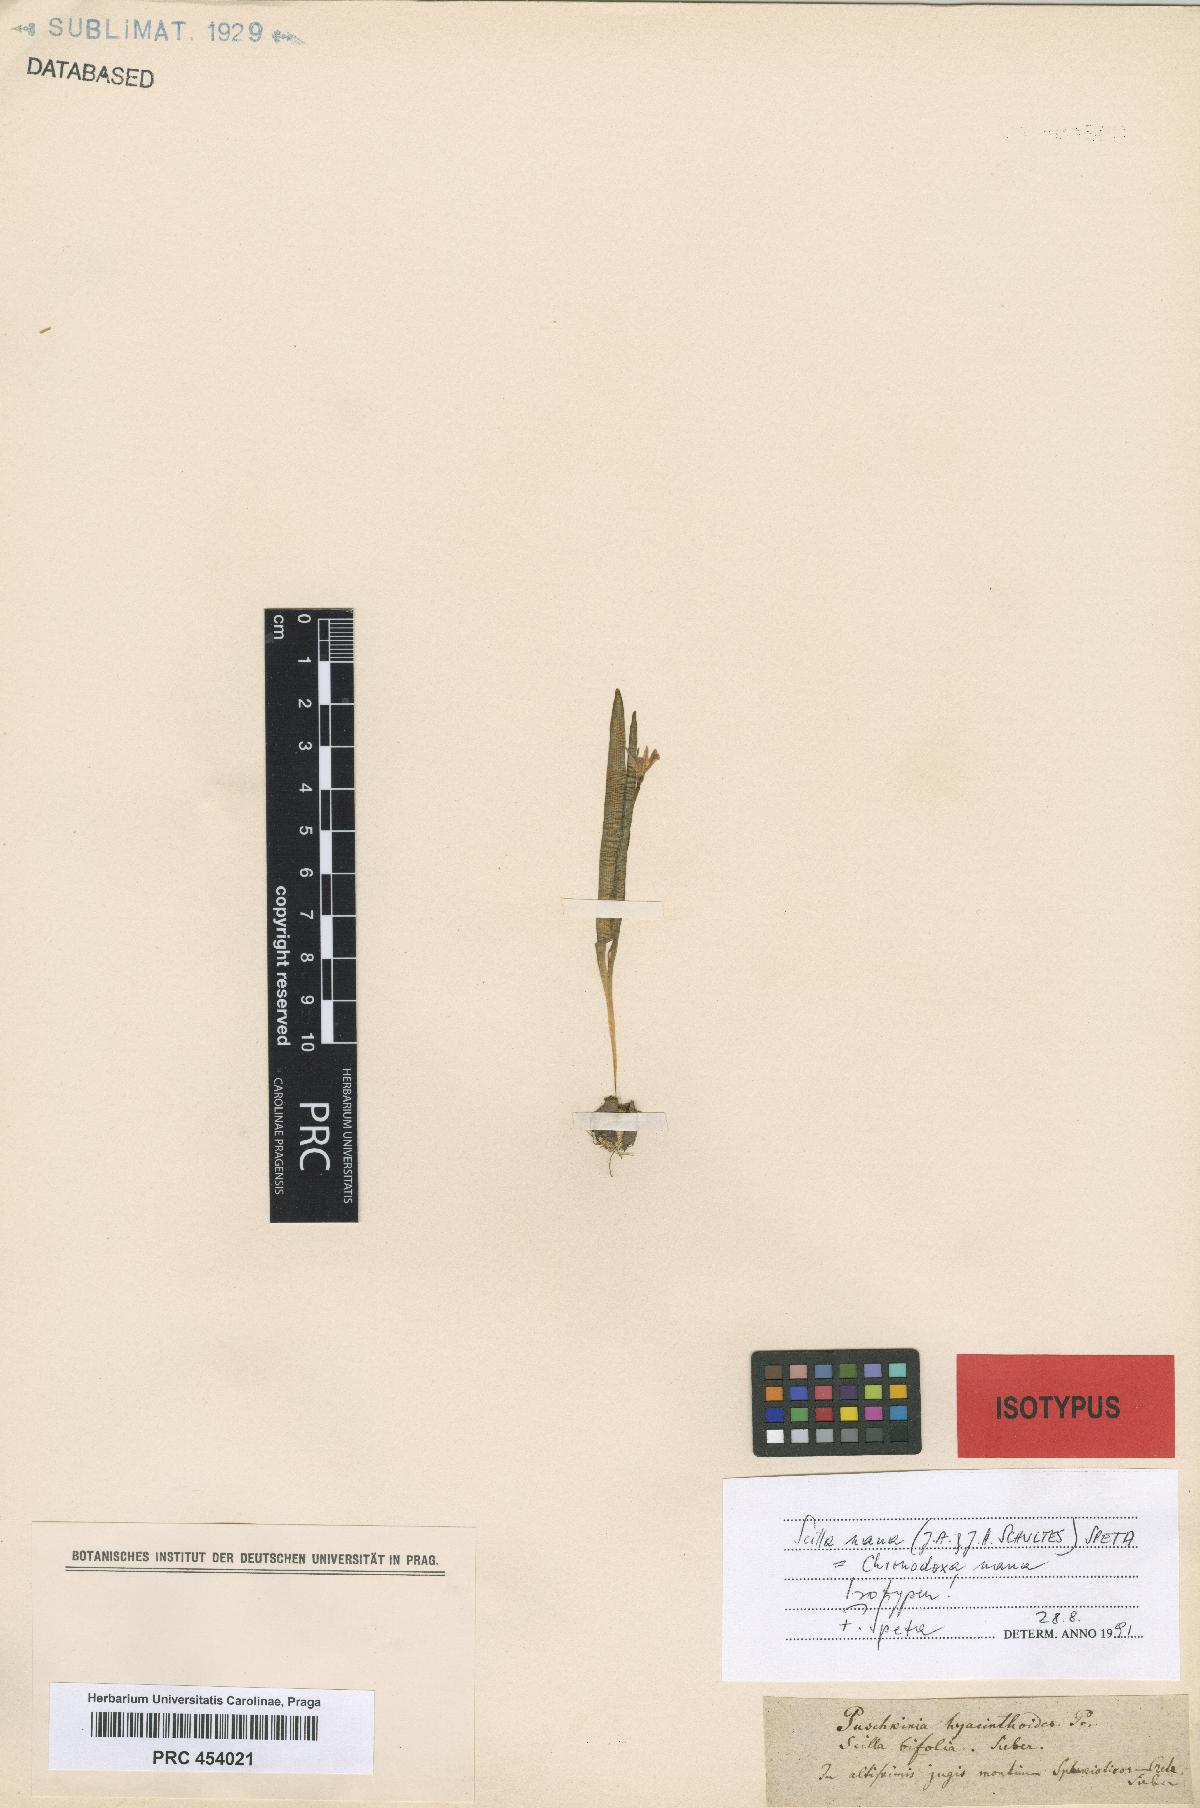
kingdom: Plantae
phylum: Tracheophyta
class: Liliopsida
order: Asparagales
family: Asparagaceae
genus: Scilla
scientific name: Scilla nana
